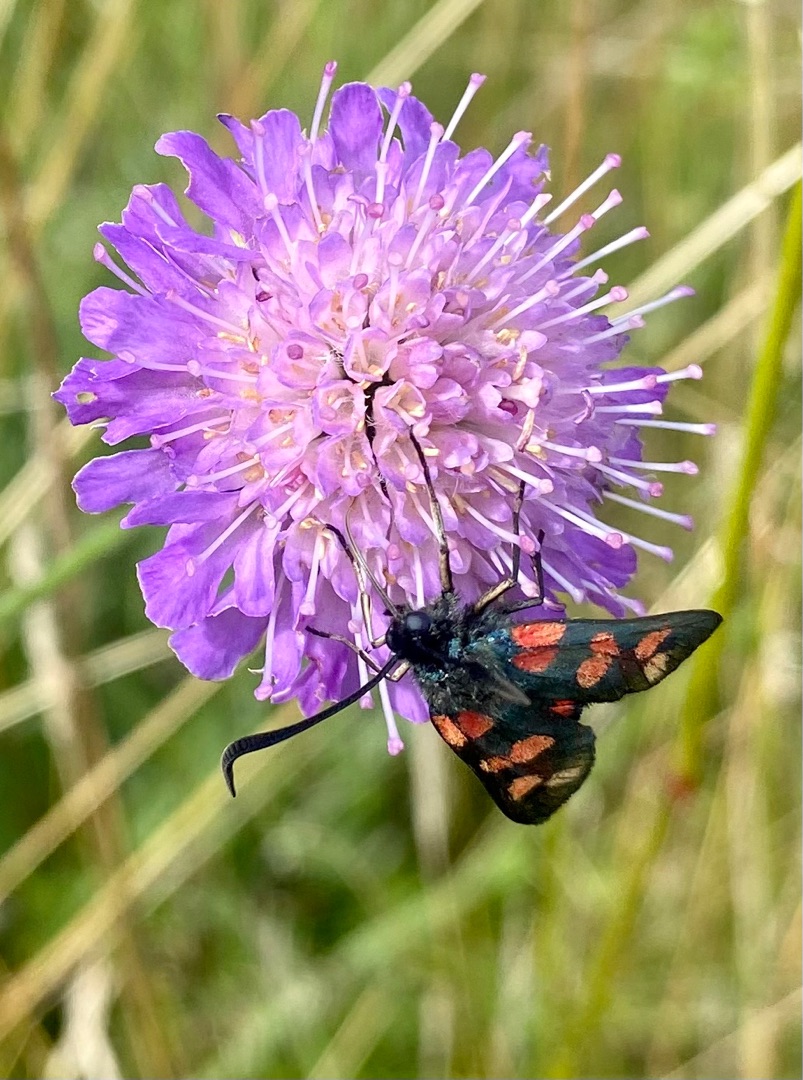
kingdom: Animalia
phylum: Arthropoda
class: Insecta
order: Lepidoptera
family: Zygaenidae
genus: Zygaena
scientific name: Zygaena filipendulae
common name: Seksplettet køllesværmer
